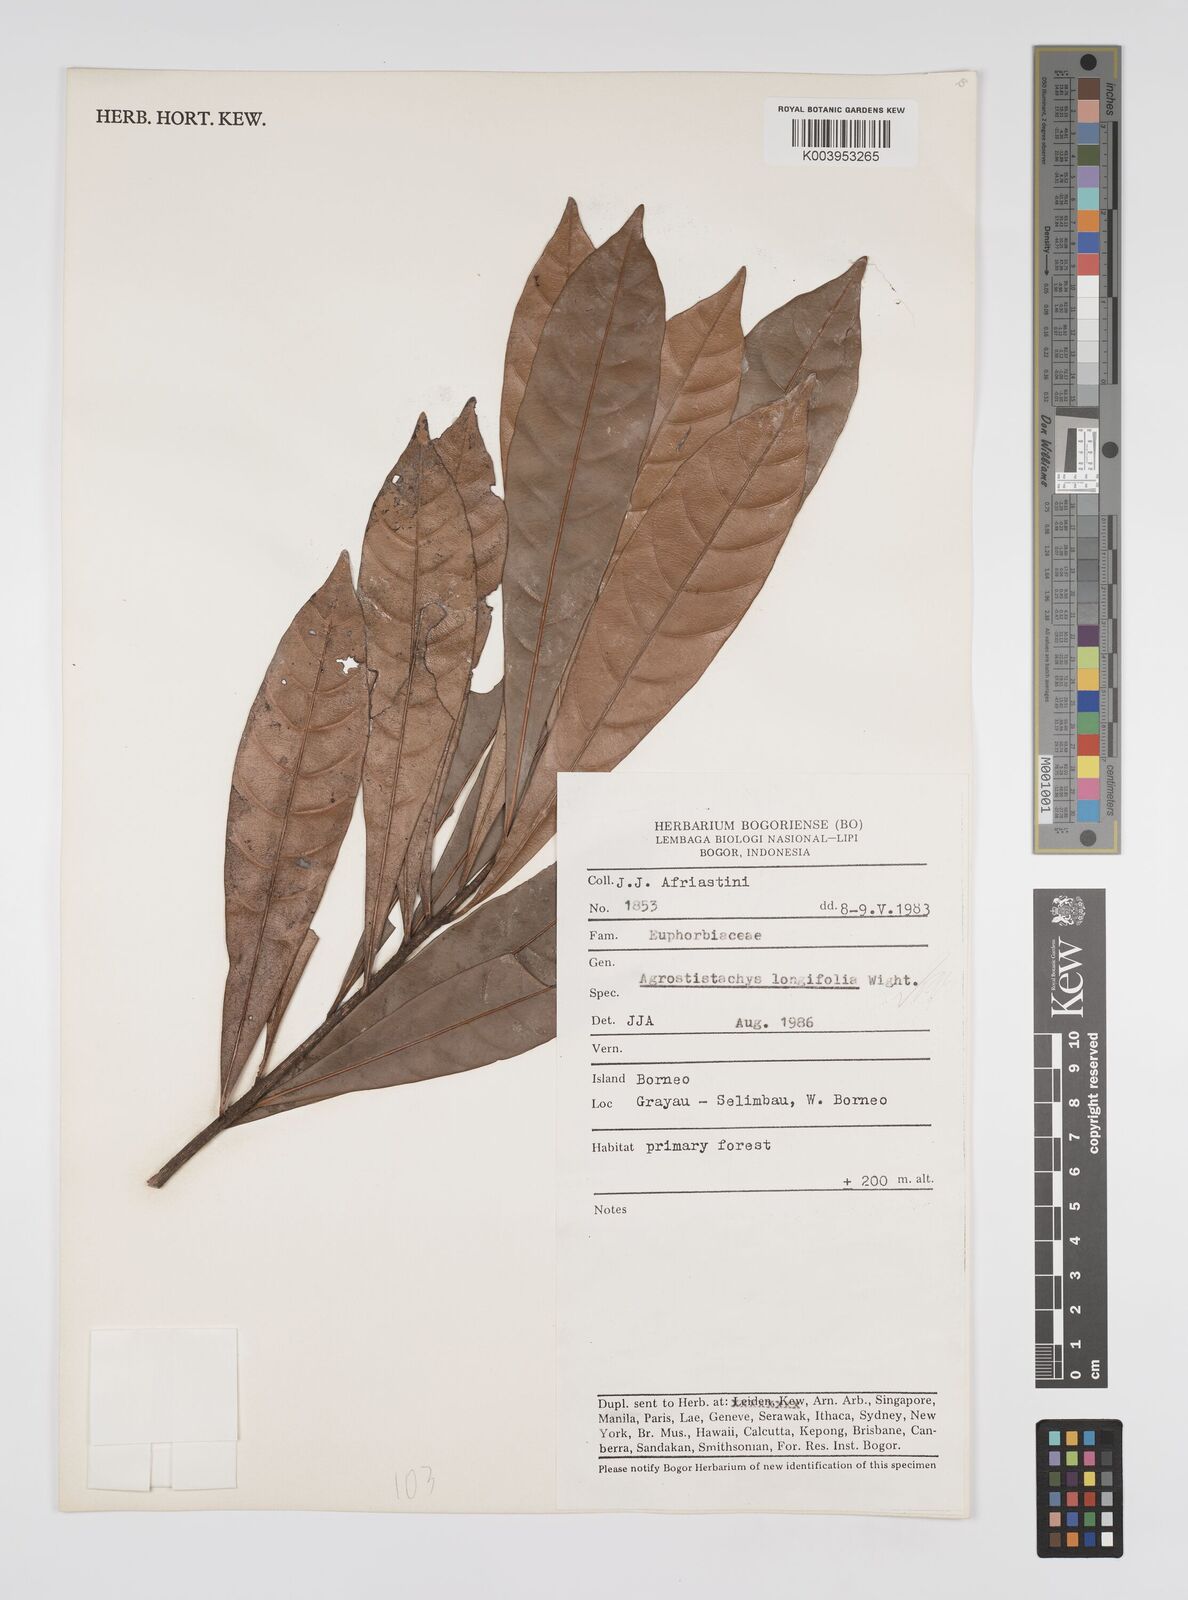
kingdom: Plantae
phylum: Tracheophyta
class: Magnoliopsida
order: Malpighiales
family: Euphorbiaceae
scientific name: Euphorbiaceae
